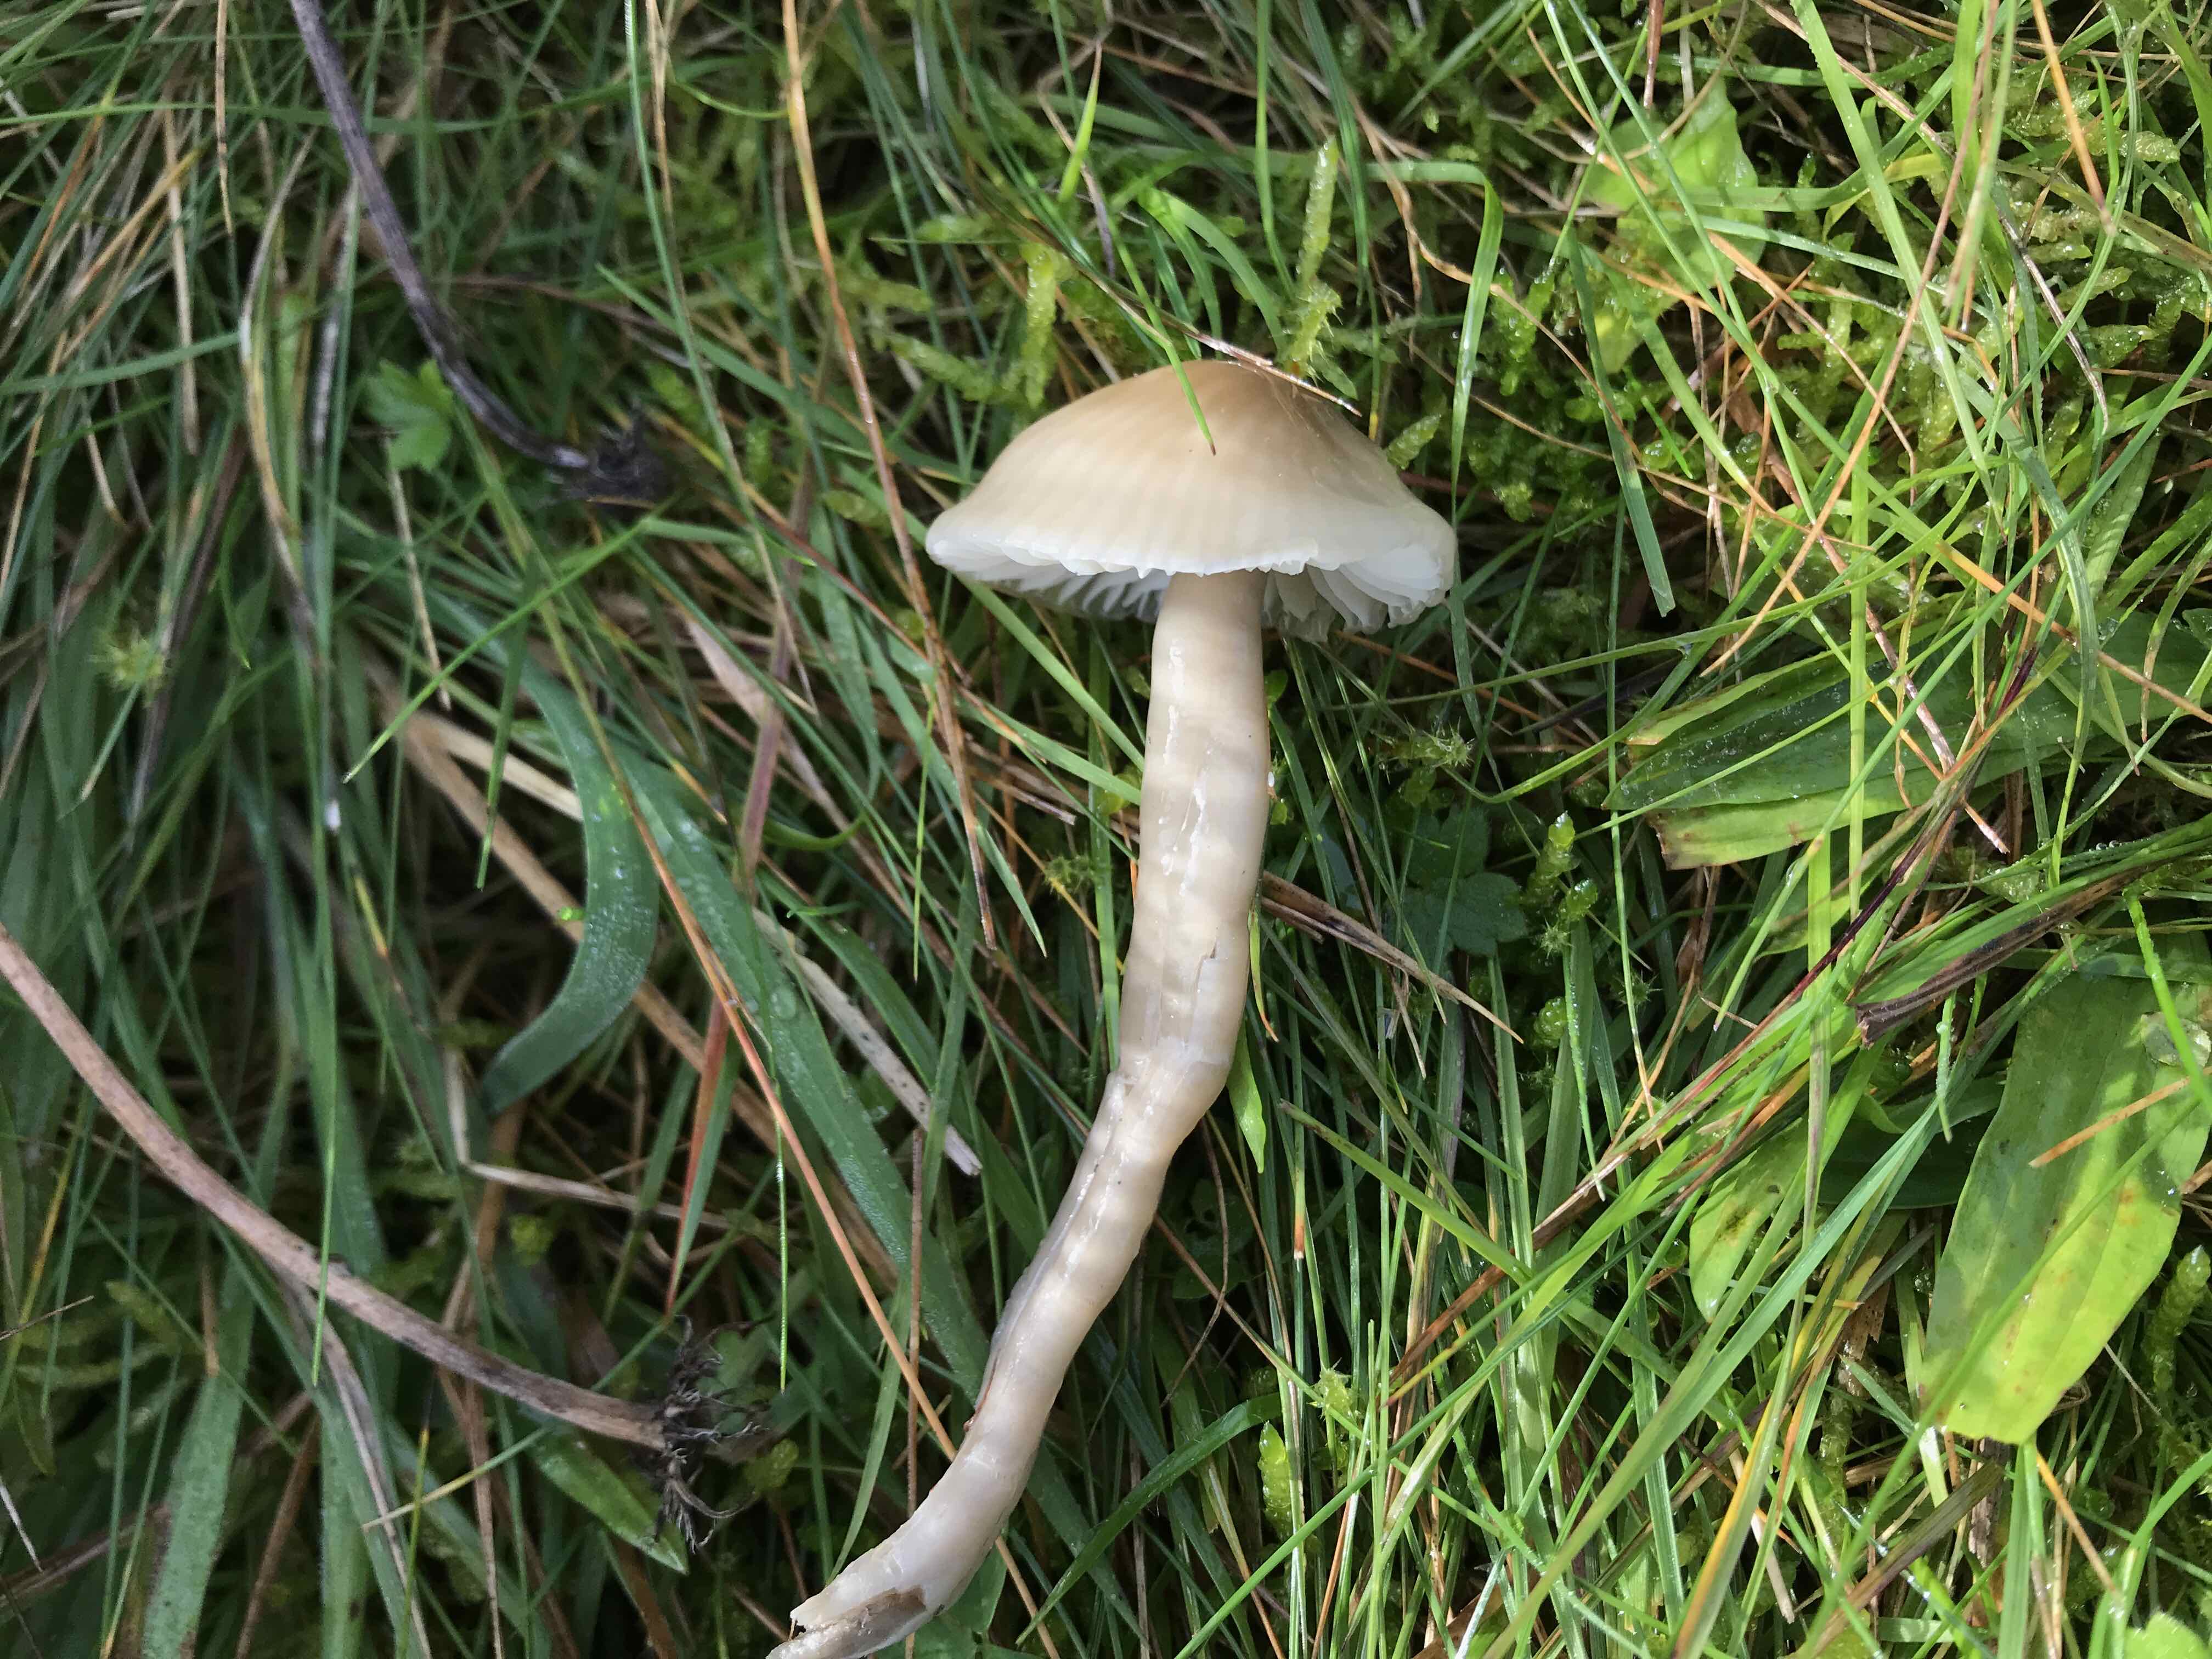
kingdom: Fungi
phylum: Basidiomycota
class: Agaricomycetes
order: Agaricales
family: Hygrophoraceae
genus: Gliophorus
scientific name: Gliophorus irrigatus
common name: slimet vokshat
